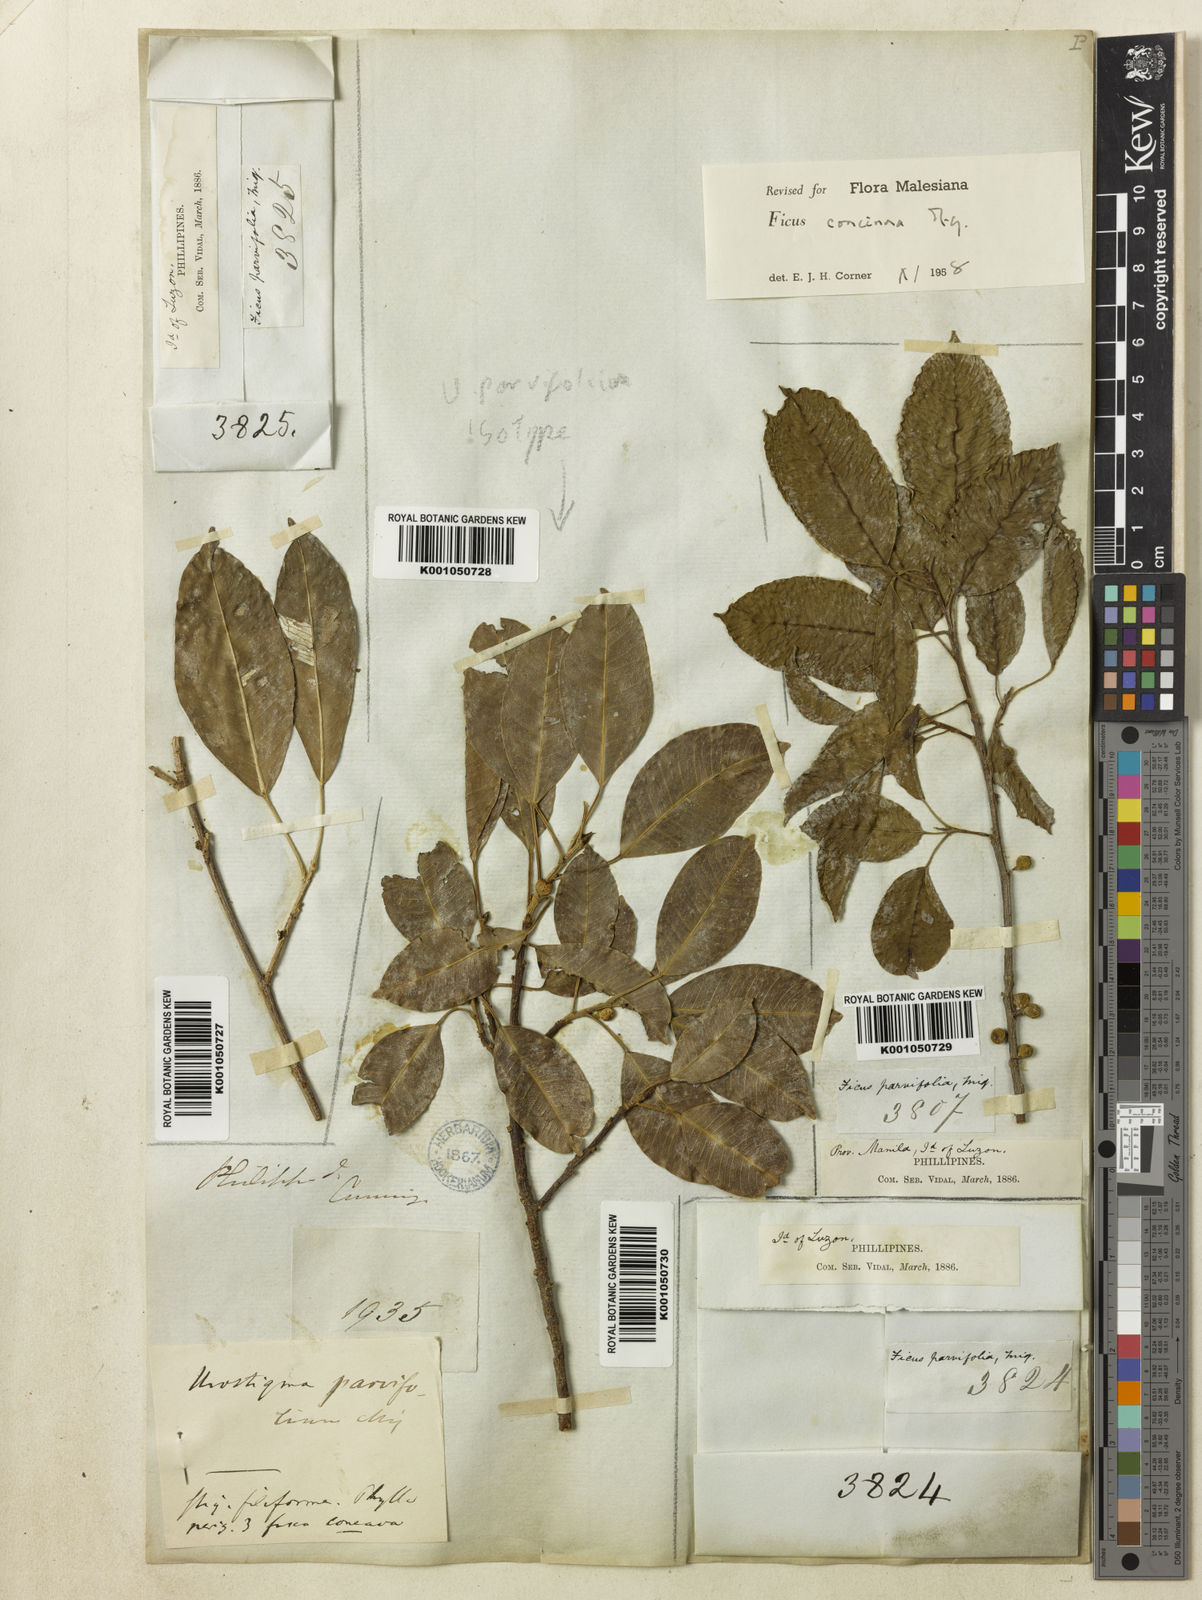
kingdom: Plantae
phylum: Tracheophyta
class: Magnoliopsida
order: Rosales
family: Moraceae
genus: Ficus
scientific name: Ficus concinna
